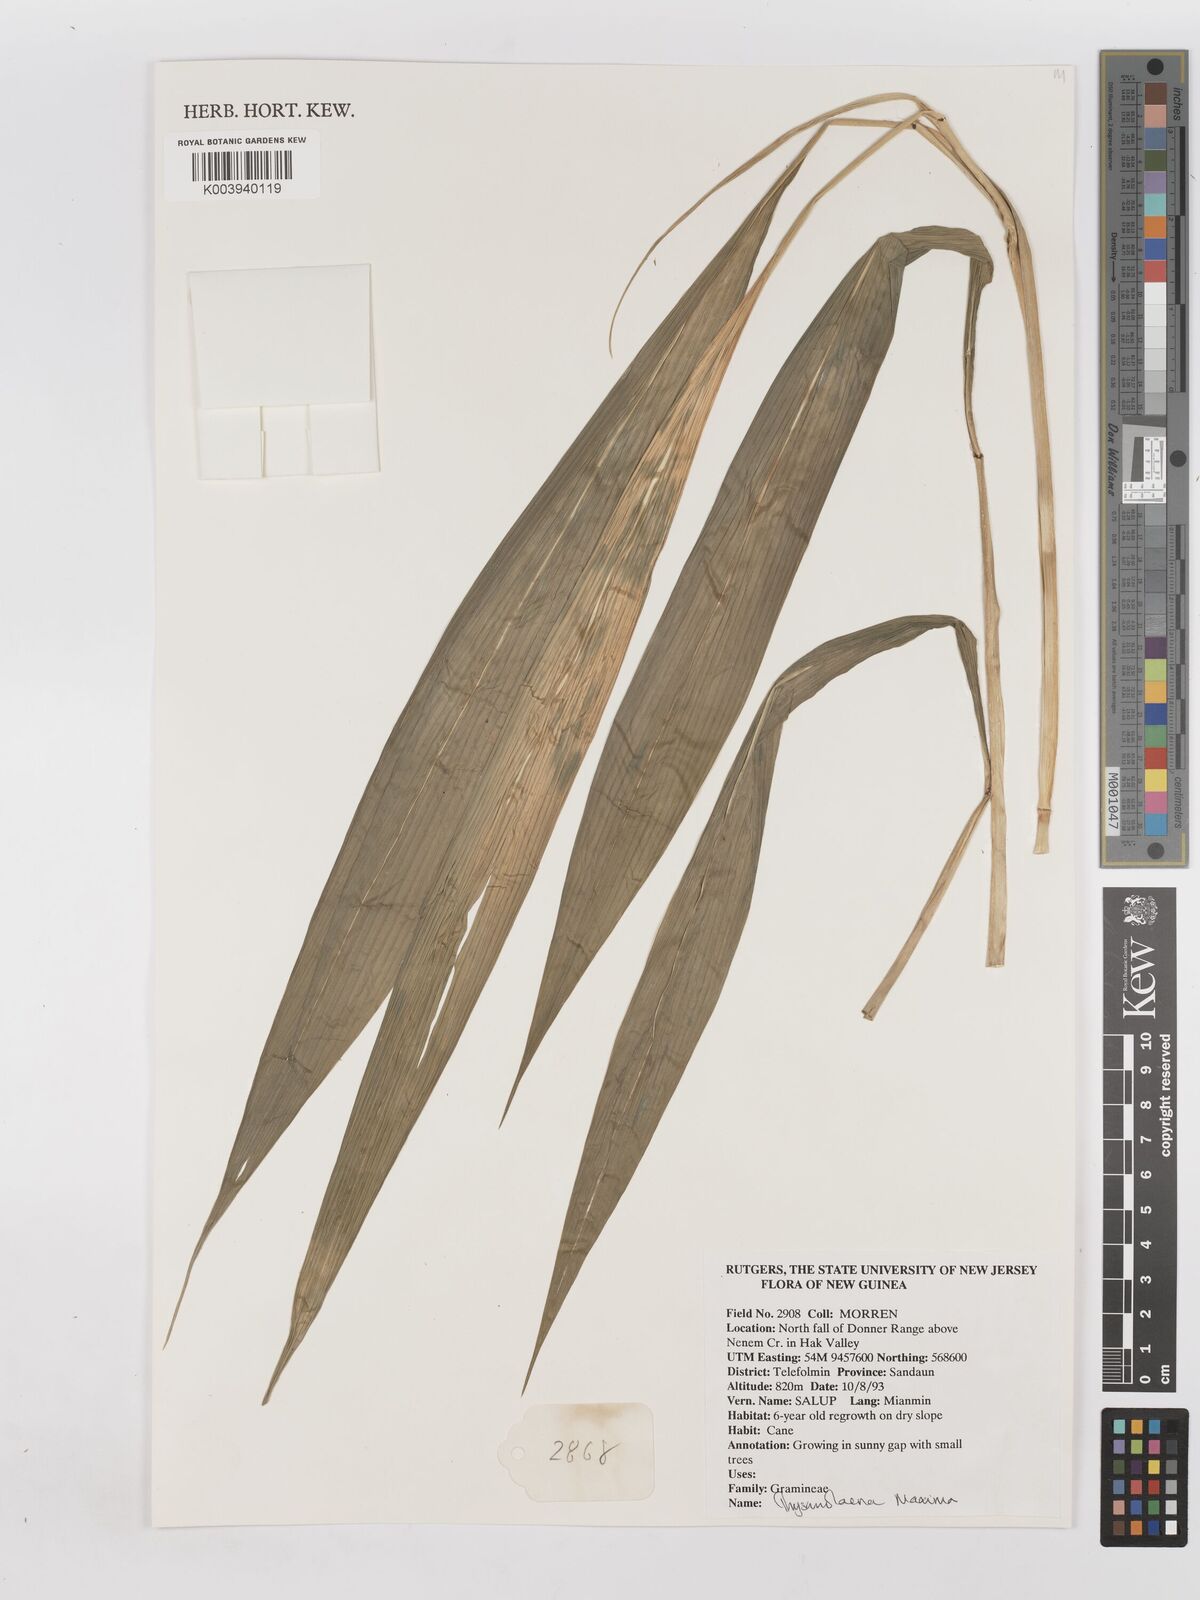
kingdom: Plantae
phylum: Tracheophyta
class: Liliopsida
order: Poales
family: Poaceae
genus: Thysanolaena
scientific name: Thysanolaena latifolia
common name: Tiger grass
